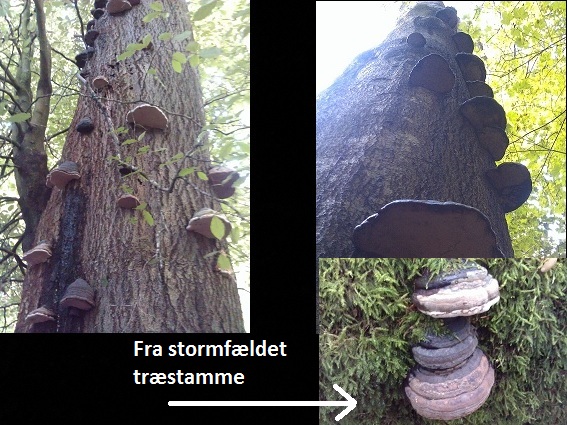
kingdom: Fungi
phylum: Basidiomycota
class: Agaricomycetes
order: Polyporales
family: Polyporaceae
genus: Fomes
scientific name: Fomes fomentarius
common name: tøndersvamp
